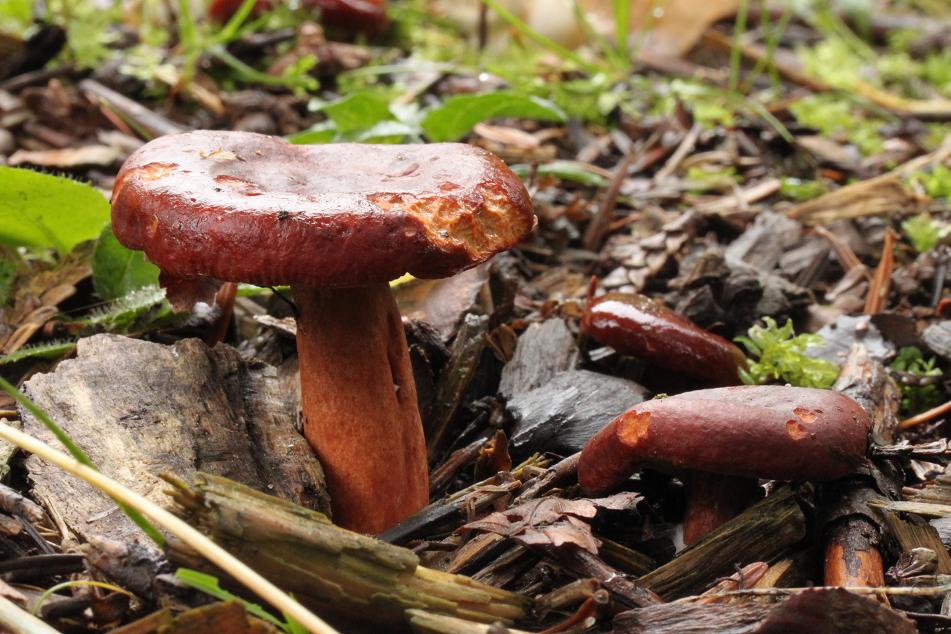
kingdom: Fungi
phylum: Basidiomycota
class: Agaricomycetes
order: Russulales
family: Russulaceae
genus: Lactarius
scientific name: Lactarius fulvissimus
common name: ræve-mælkehat
